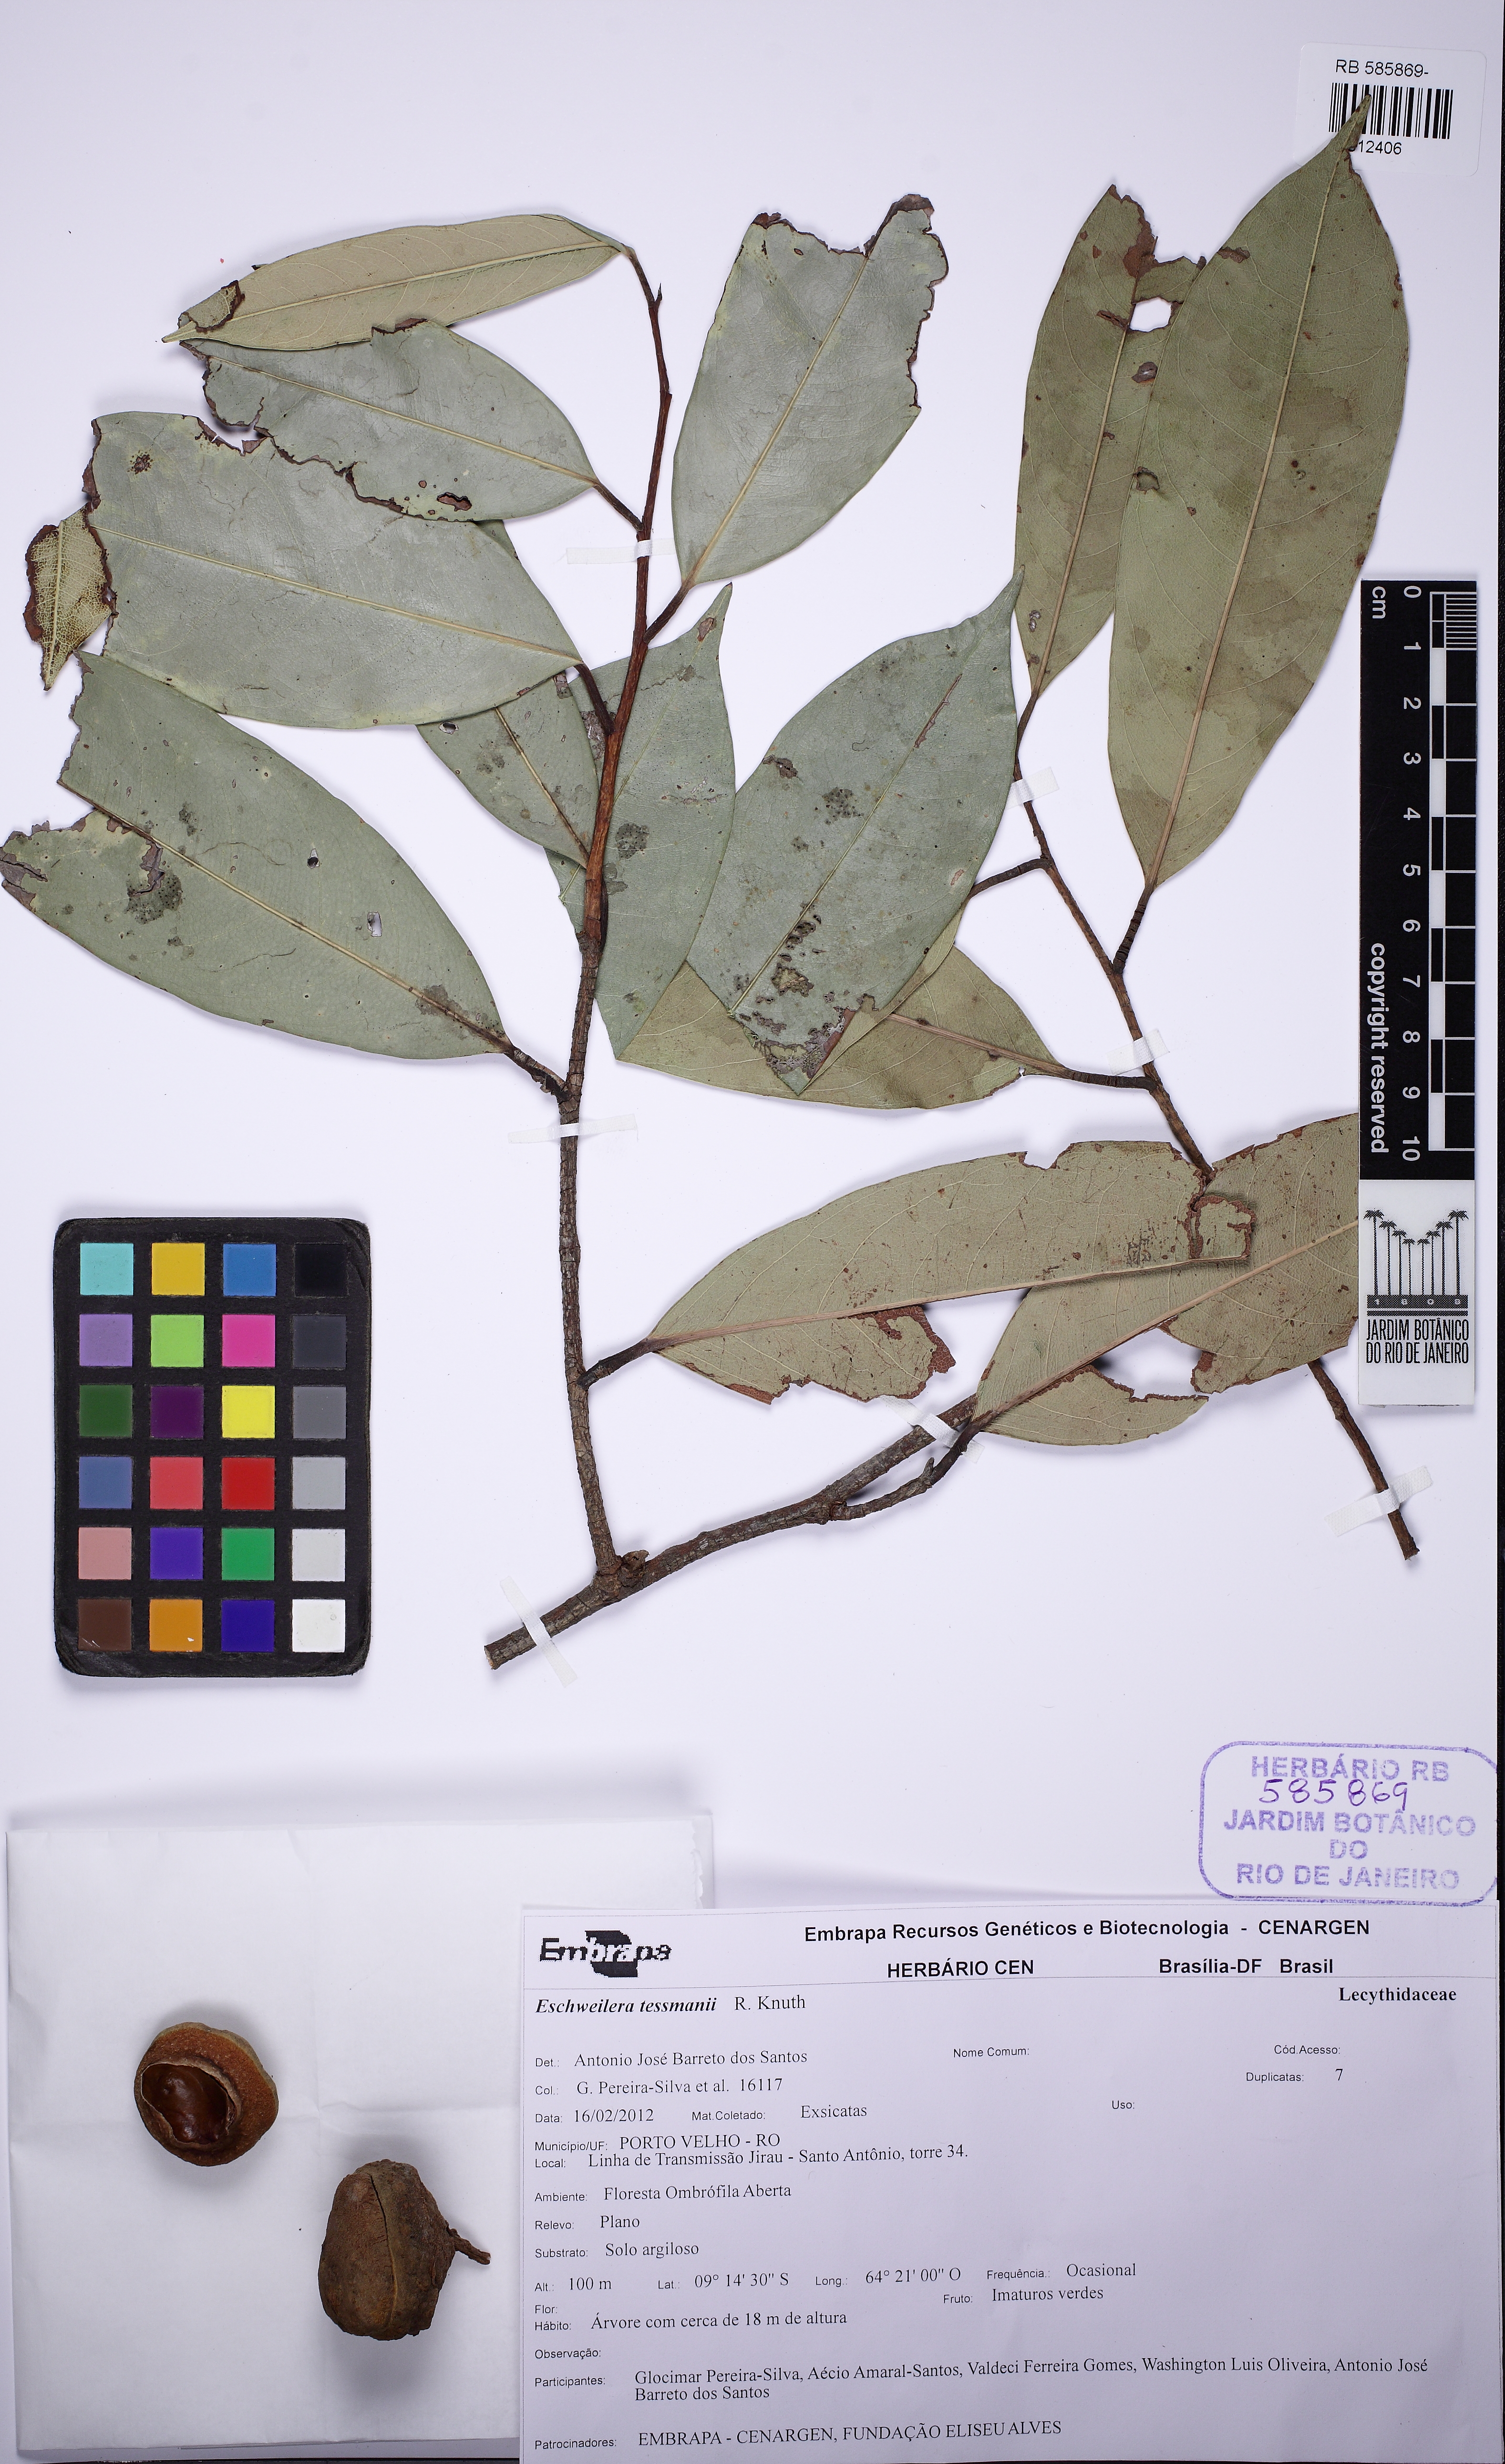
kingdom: Plantae
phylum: Tracheophyta
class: Magnoliopsida
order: Ericales
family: Lecythidaceae
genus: Eschweilera
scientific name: Eschweilera tessmannii
